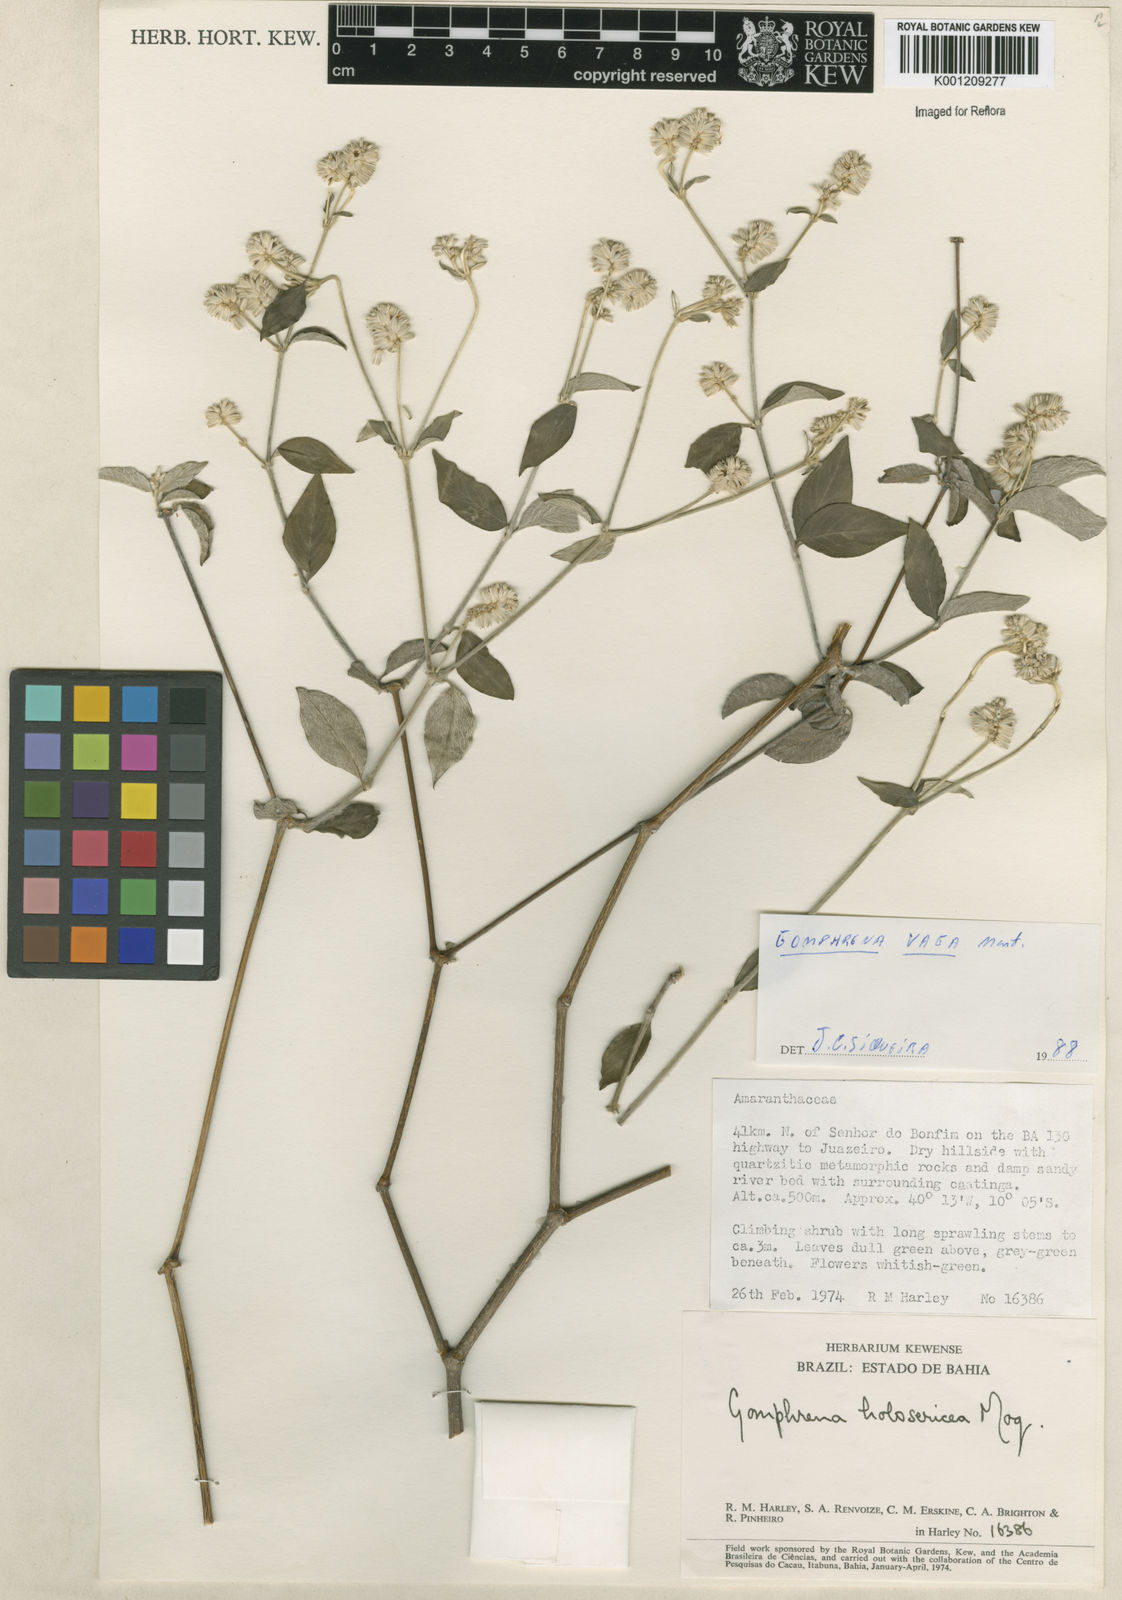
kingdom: Plantae
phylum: Tracheophyta
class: Magnoliopsida
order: Caryophyllales
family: Amaranthaceae
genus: Gomphrena
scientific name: Gomphrena vaga
